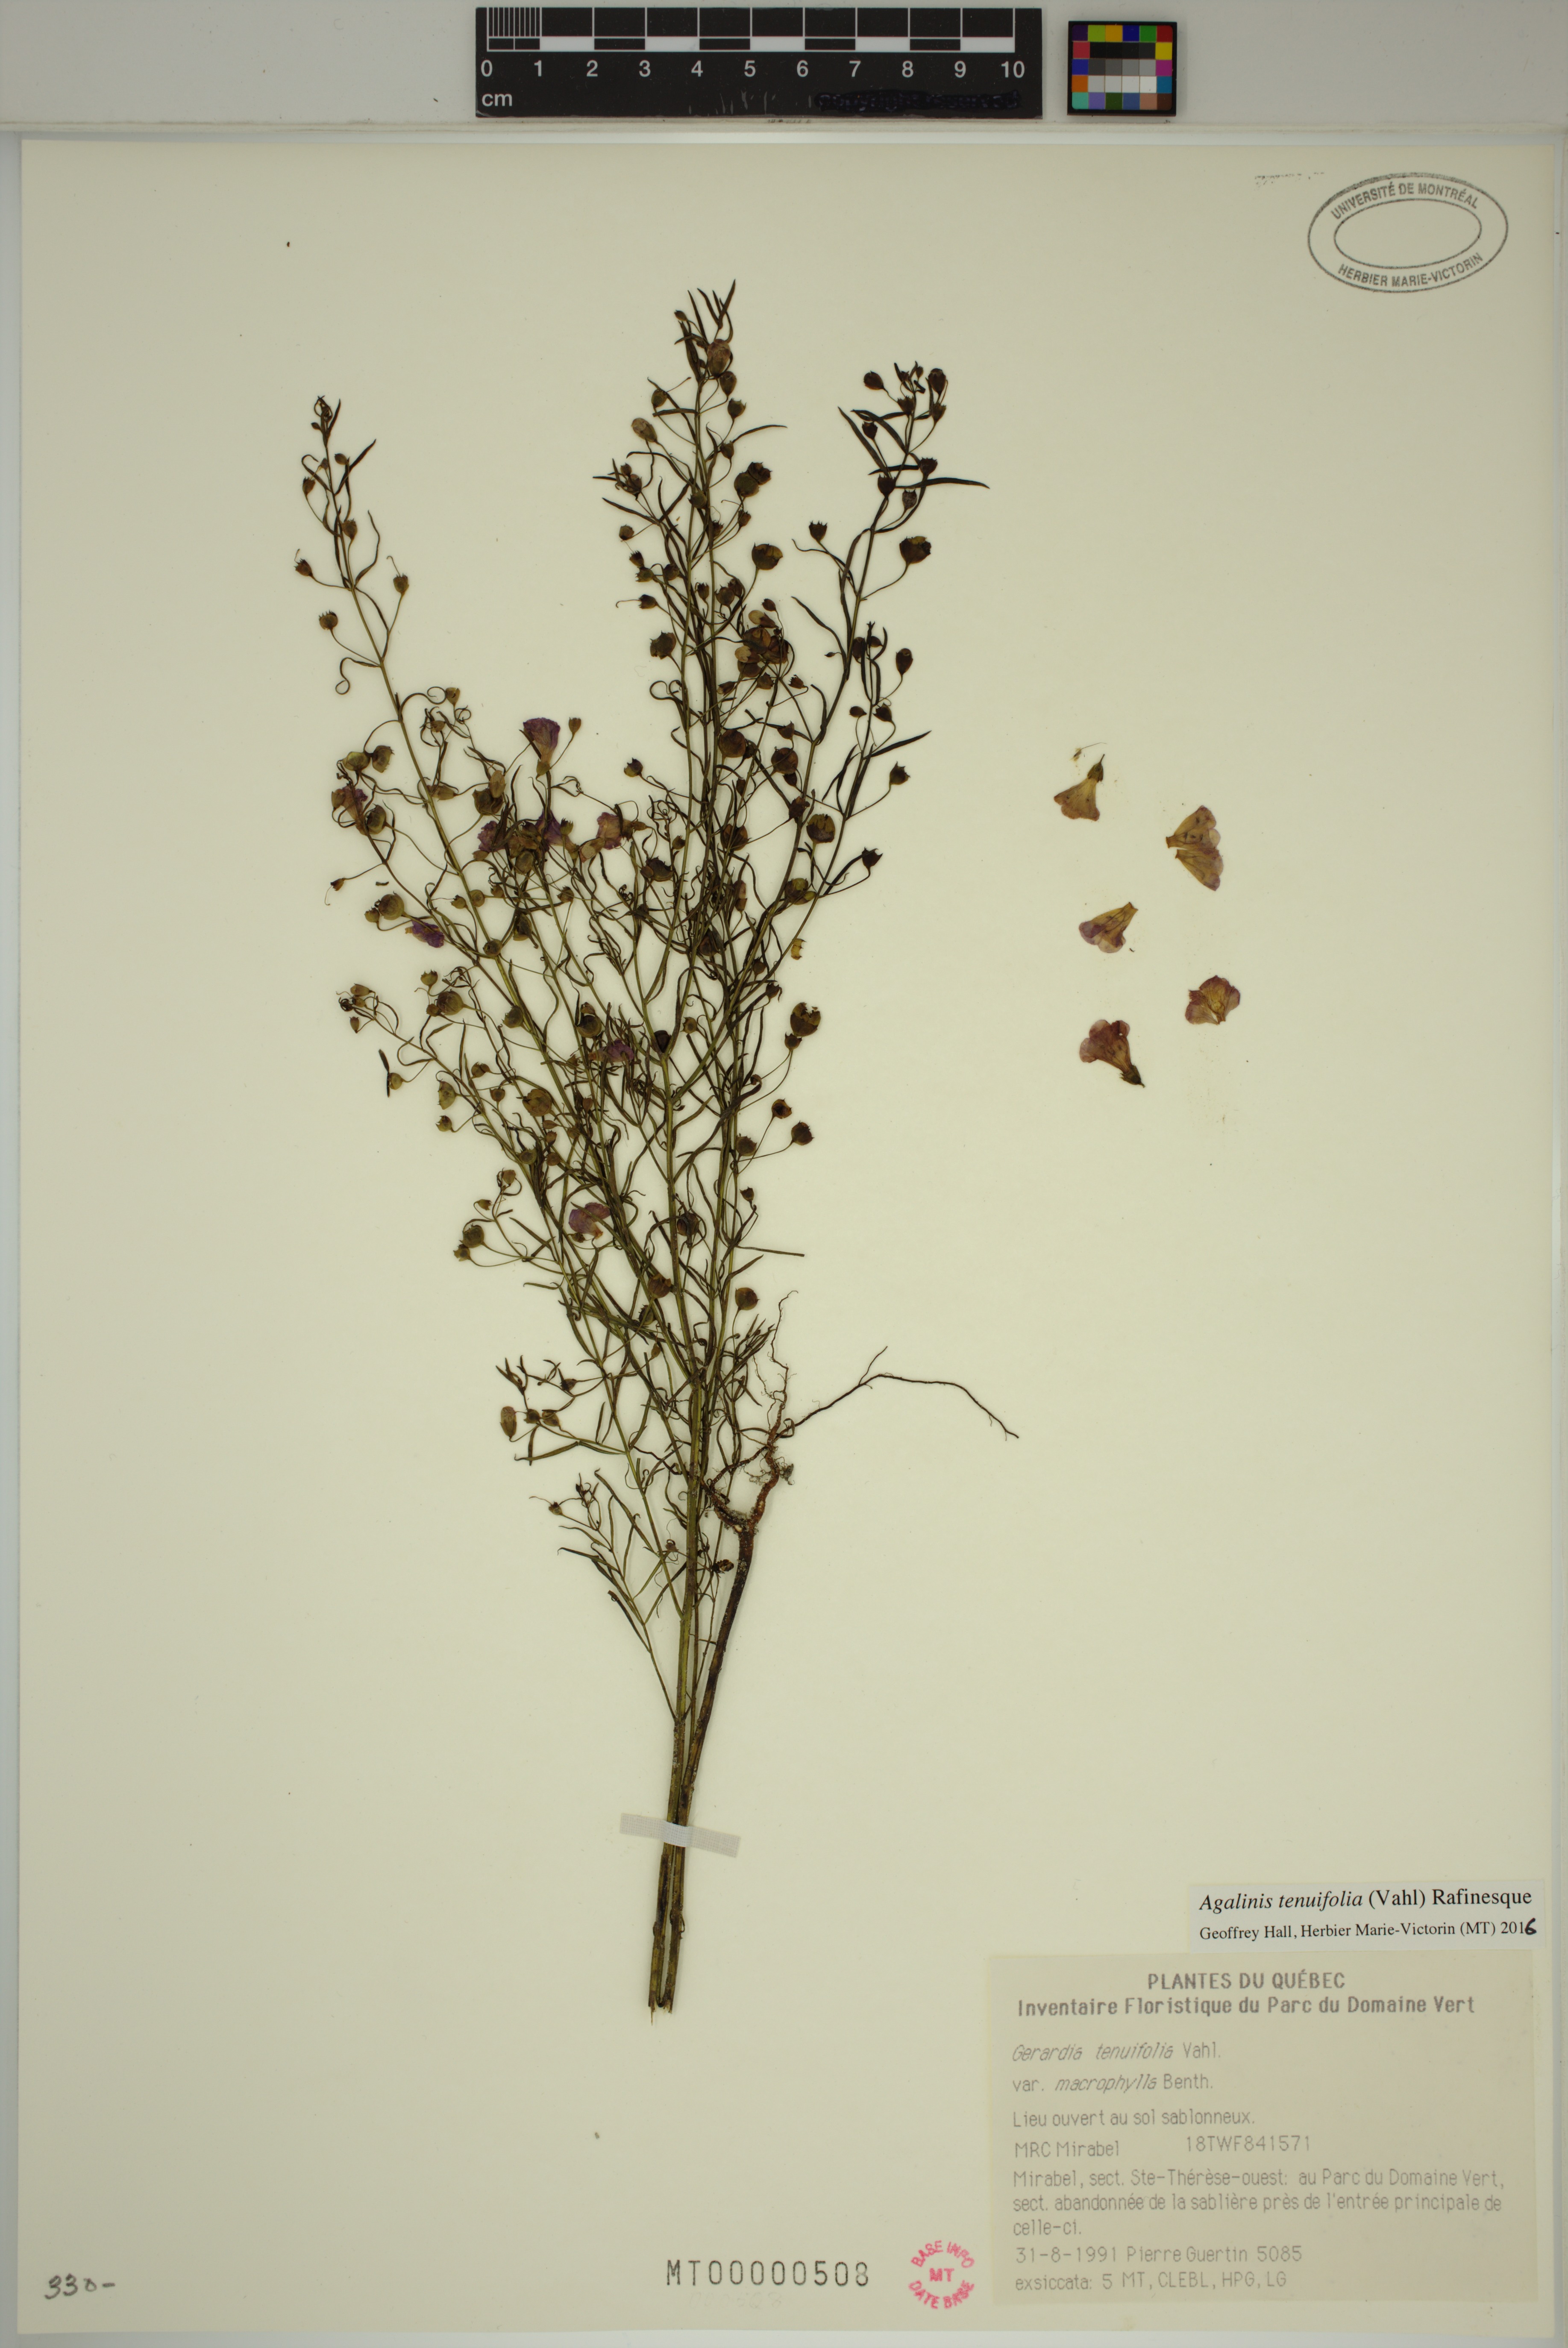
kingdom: Plantae
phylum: Tracheophyta
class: Magnoliopsida
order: Lamiales
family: Orobanchaceae
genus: Agalinis
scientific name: Agalinis tenuifolia
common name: Slender agalinis
